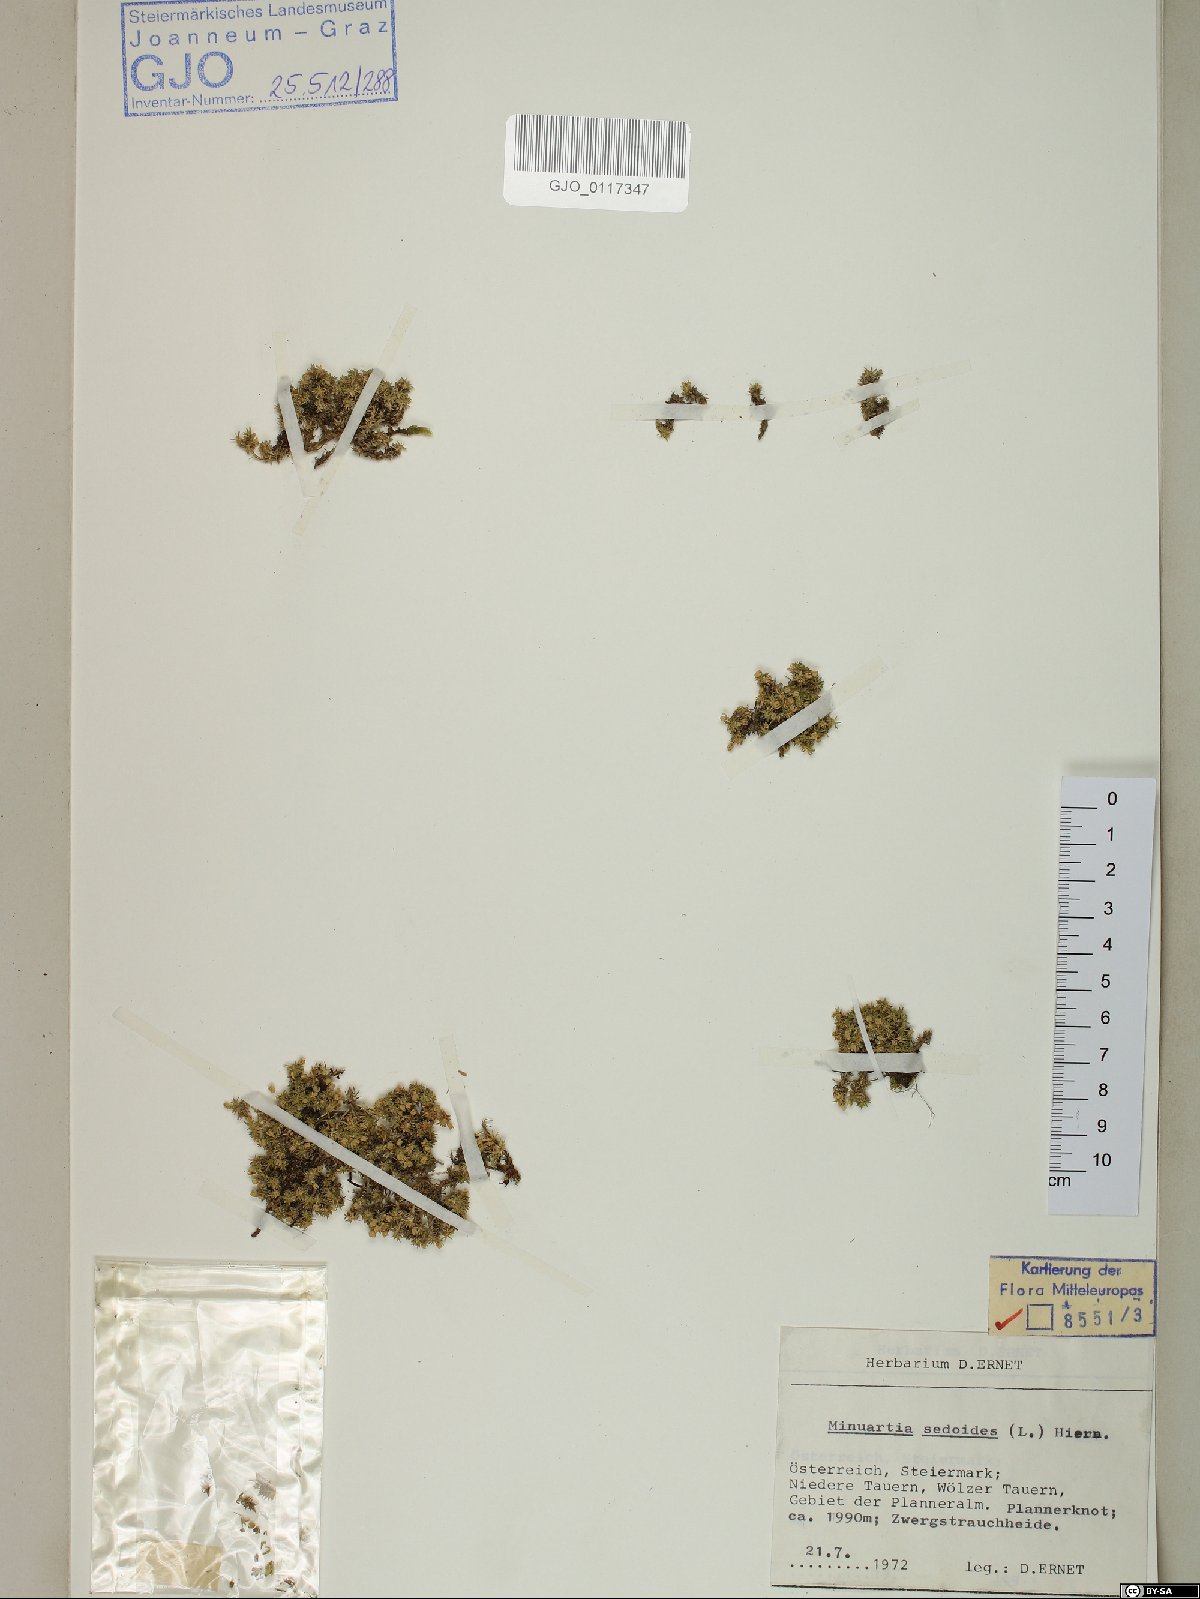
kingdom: Plantae
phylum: Tracheophyta
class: Magnoliopsida
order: Caryophyllales
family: Caryophyllaceae
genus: Cherleria
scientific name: Cherleria sedoides
